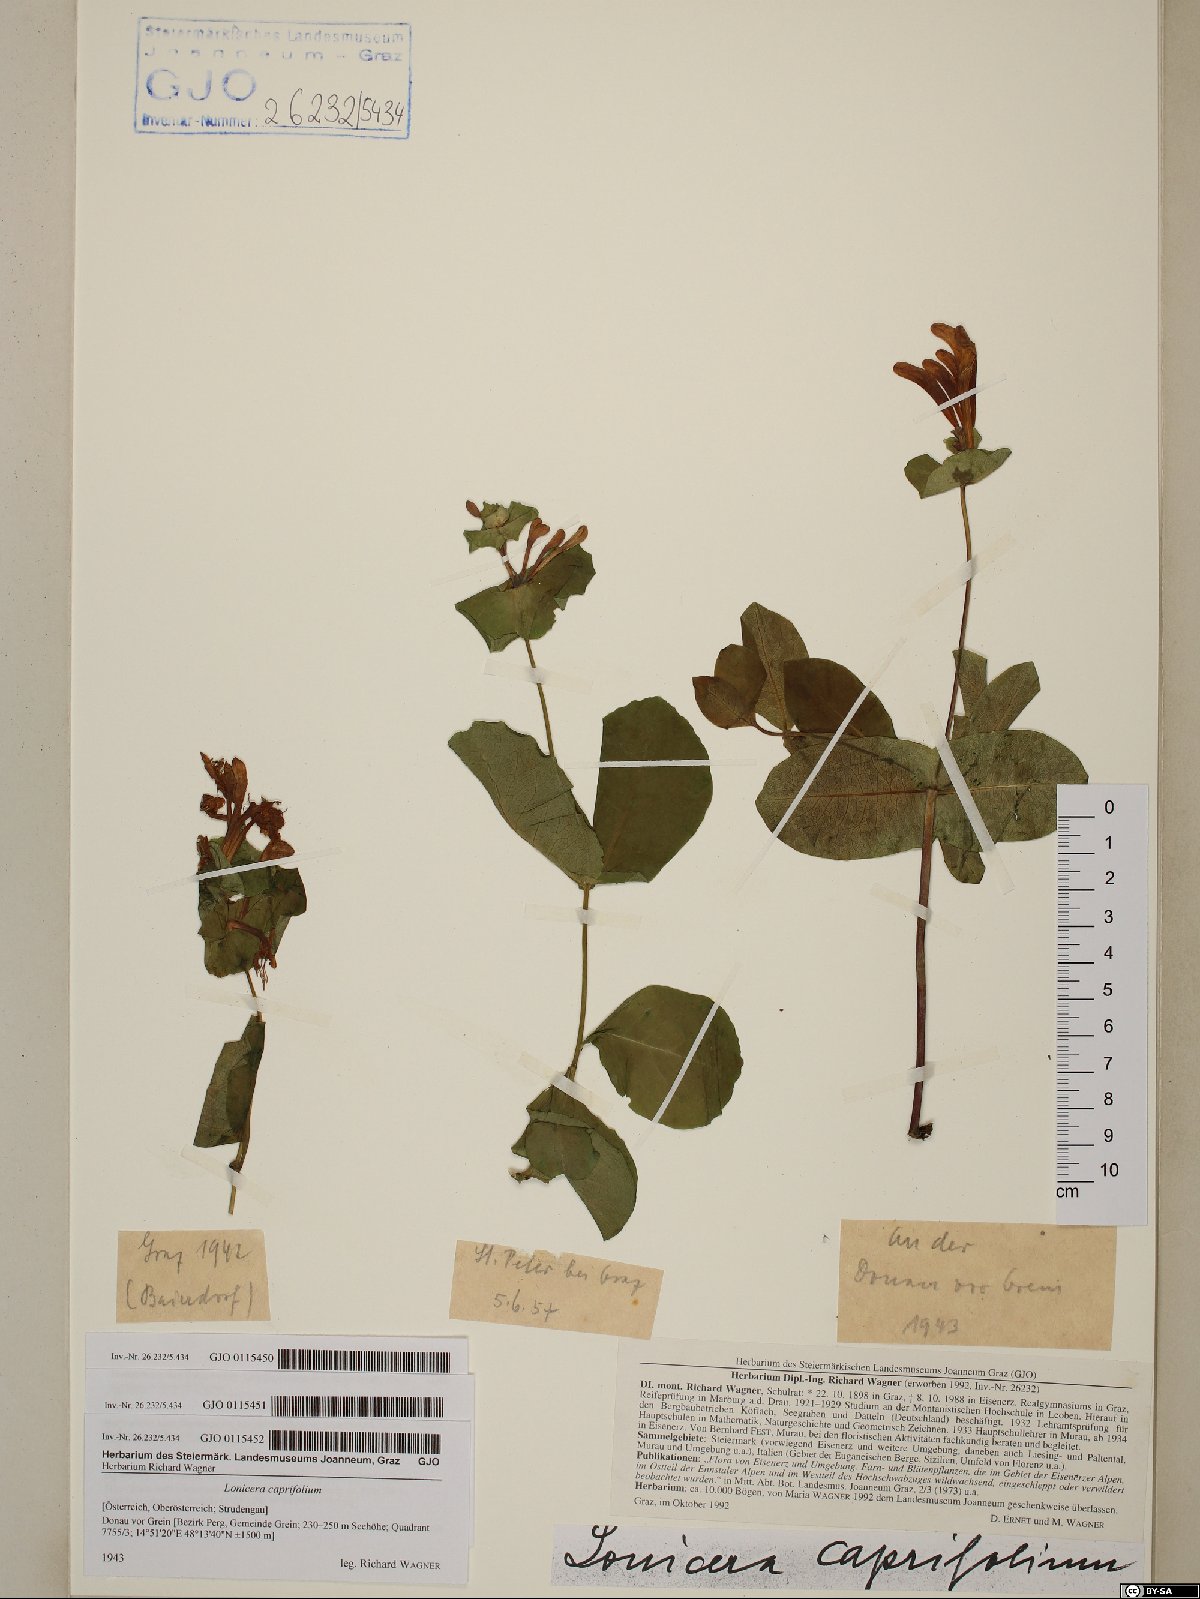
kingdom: Plantae
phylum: Tracheophyta
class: Magnoliopsida
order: Dipsacales
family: Caprifoliaceae
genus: Lonicera
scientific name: Lonicera caprifolium
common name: Perfoliate honeysuckle
